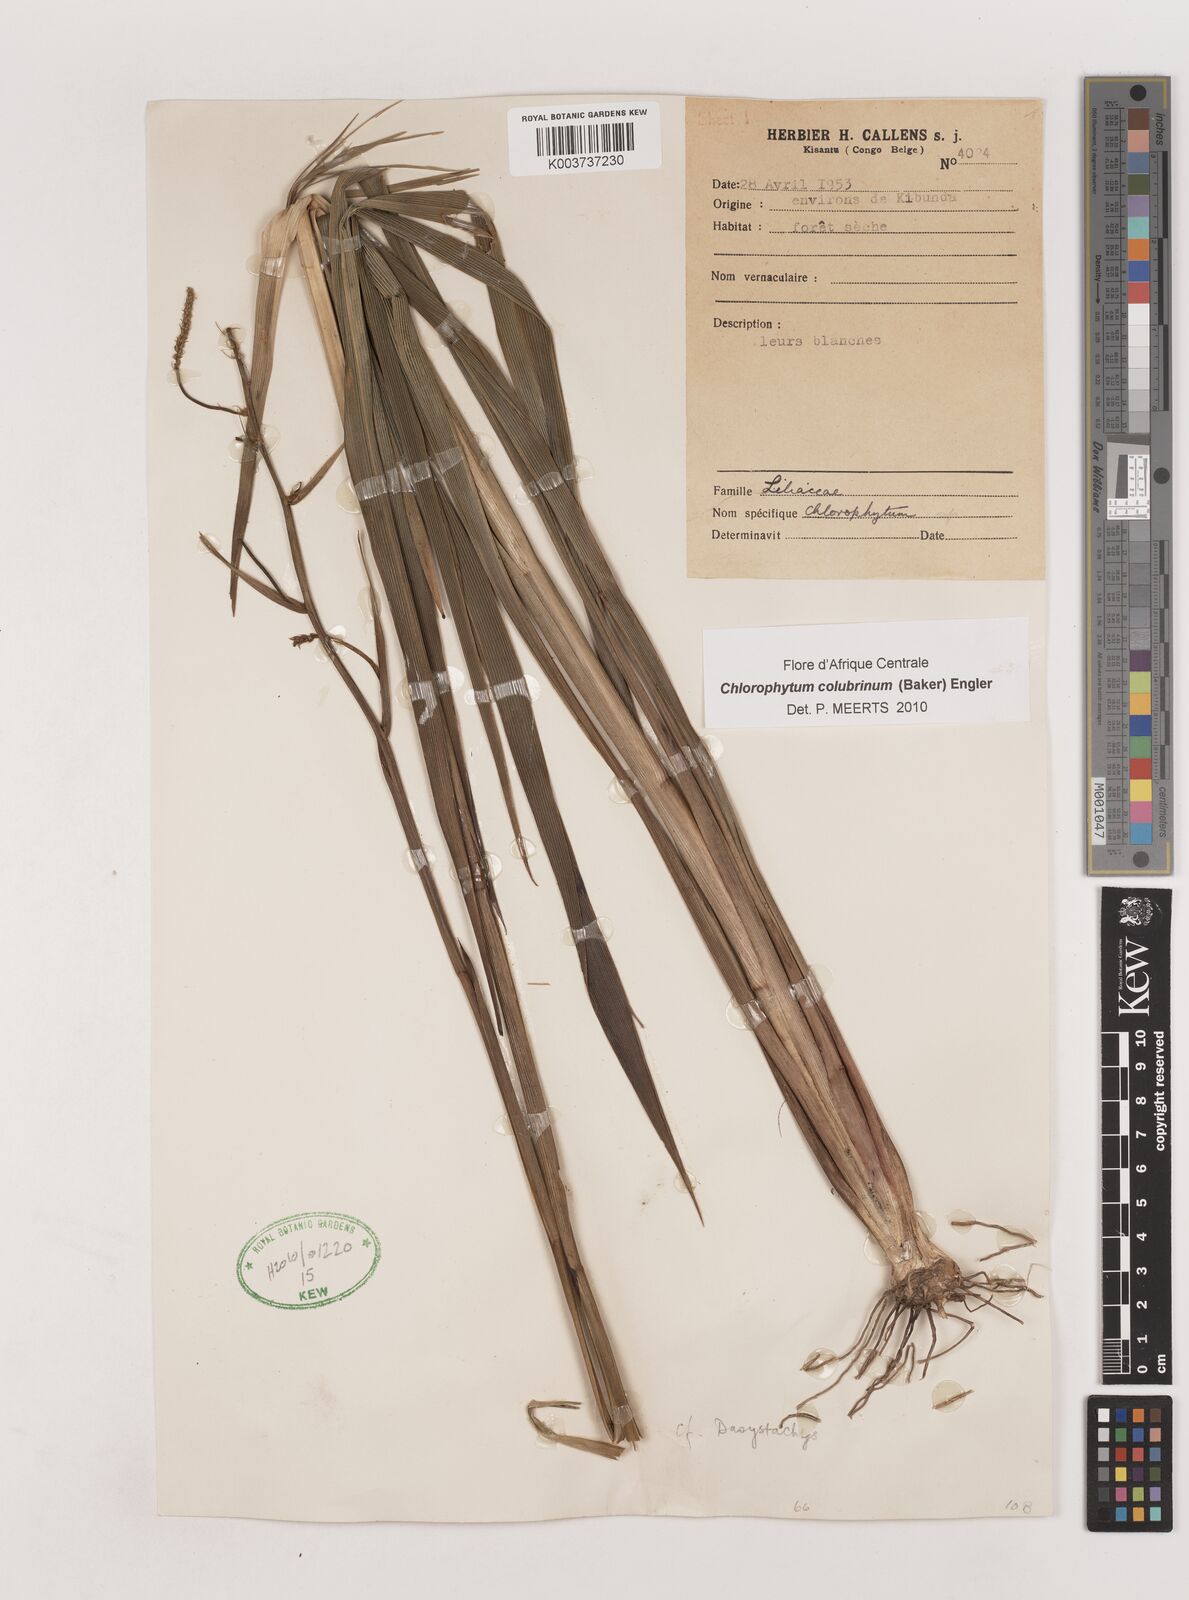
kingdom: Plantae
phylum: Tracheophyta
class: Liliopsida
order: Asparagales
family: Asparagaceae
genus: Chlorophytum
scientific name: Chlorophytum colubrinum
